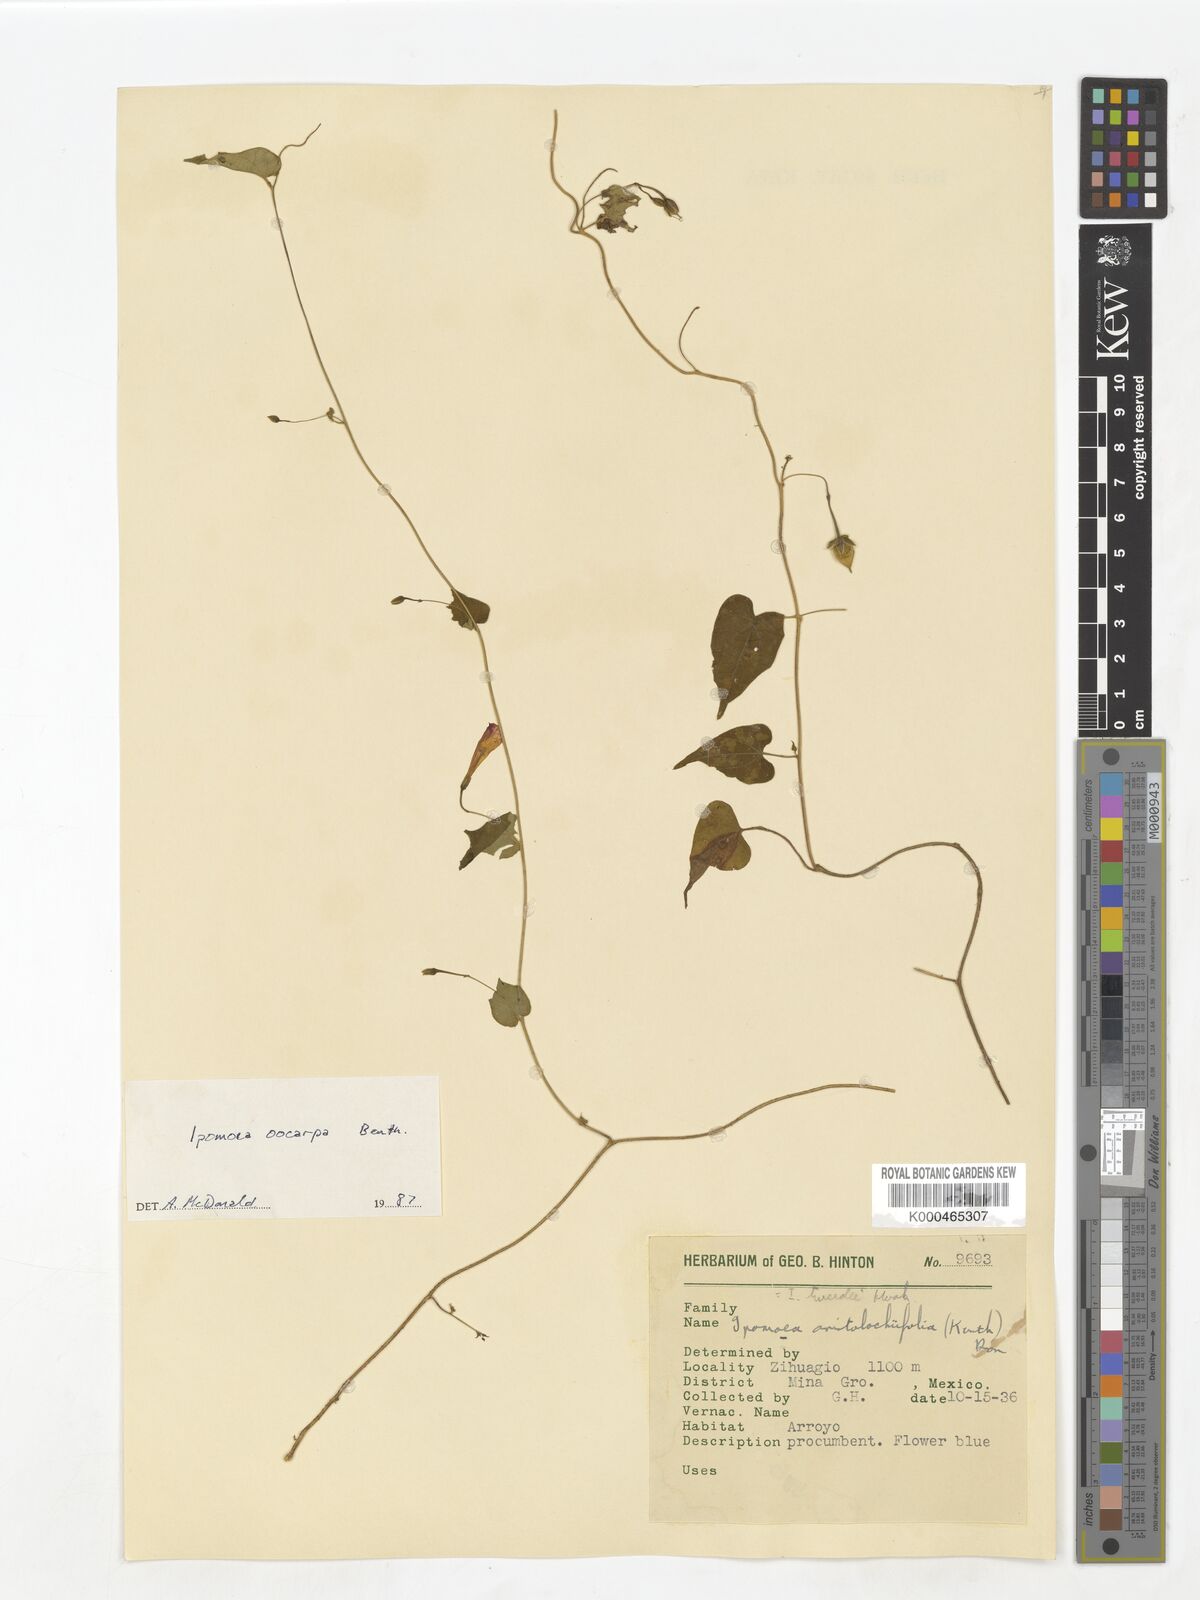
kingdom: Plantae
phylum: Tracheophyta
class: Magnoliopsida
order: Solanales
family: Convolvulaceae
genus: Ipomoea
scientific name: Ipomoea aristolochiifolia
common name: Aristolochia-leaved morning-glory
